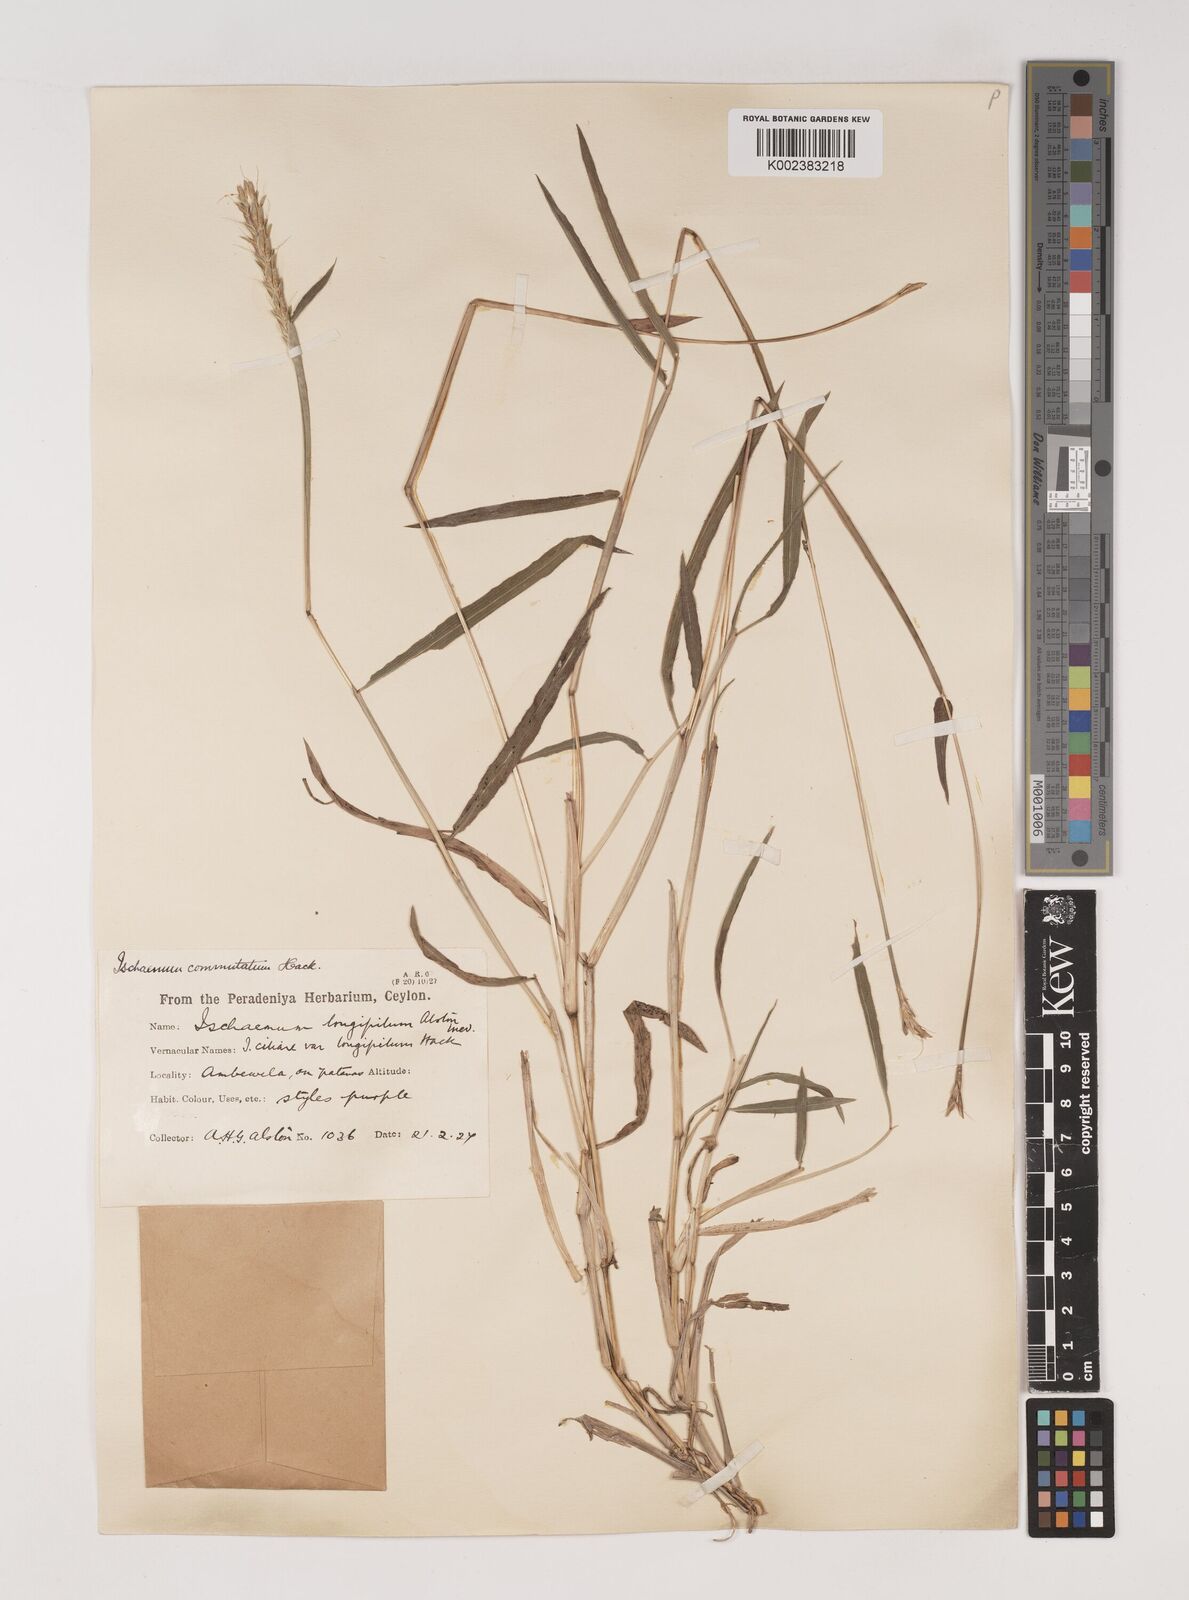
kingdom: Plantae
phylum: Tracheophyta
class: Liliopsida
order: Poales
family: Poaceae
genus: Ischaemum
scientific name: Ischaemum commutatum
